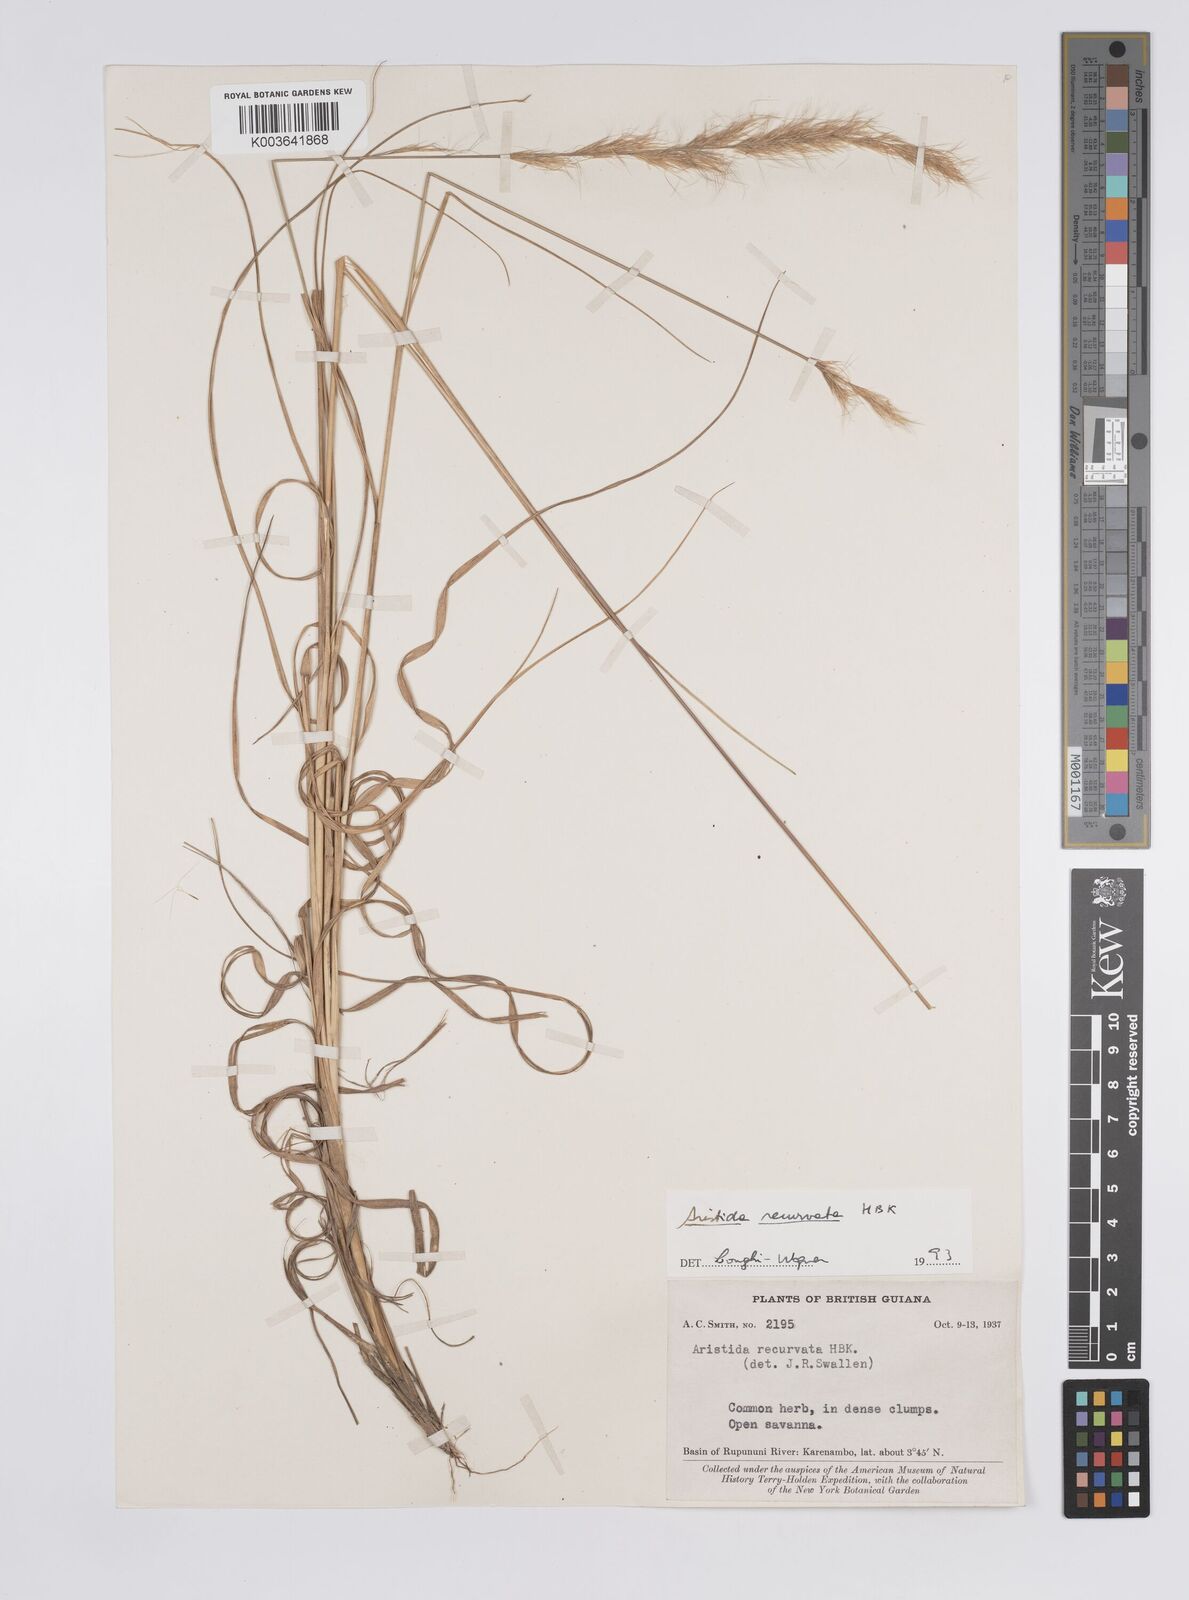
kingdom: Plantae
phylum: Tracheophyta
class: Liliopsida
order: Poales
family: Poaceae
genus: Aristida
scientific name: Aristida recurvata
